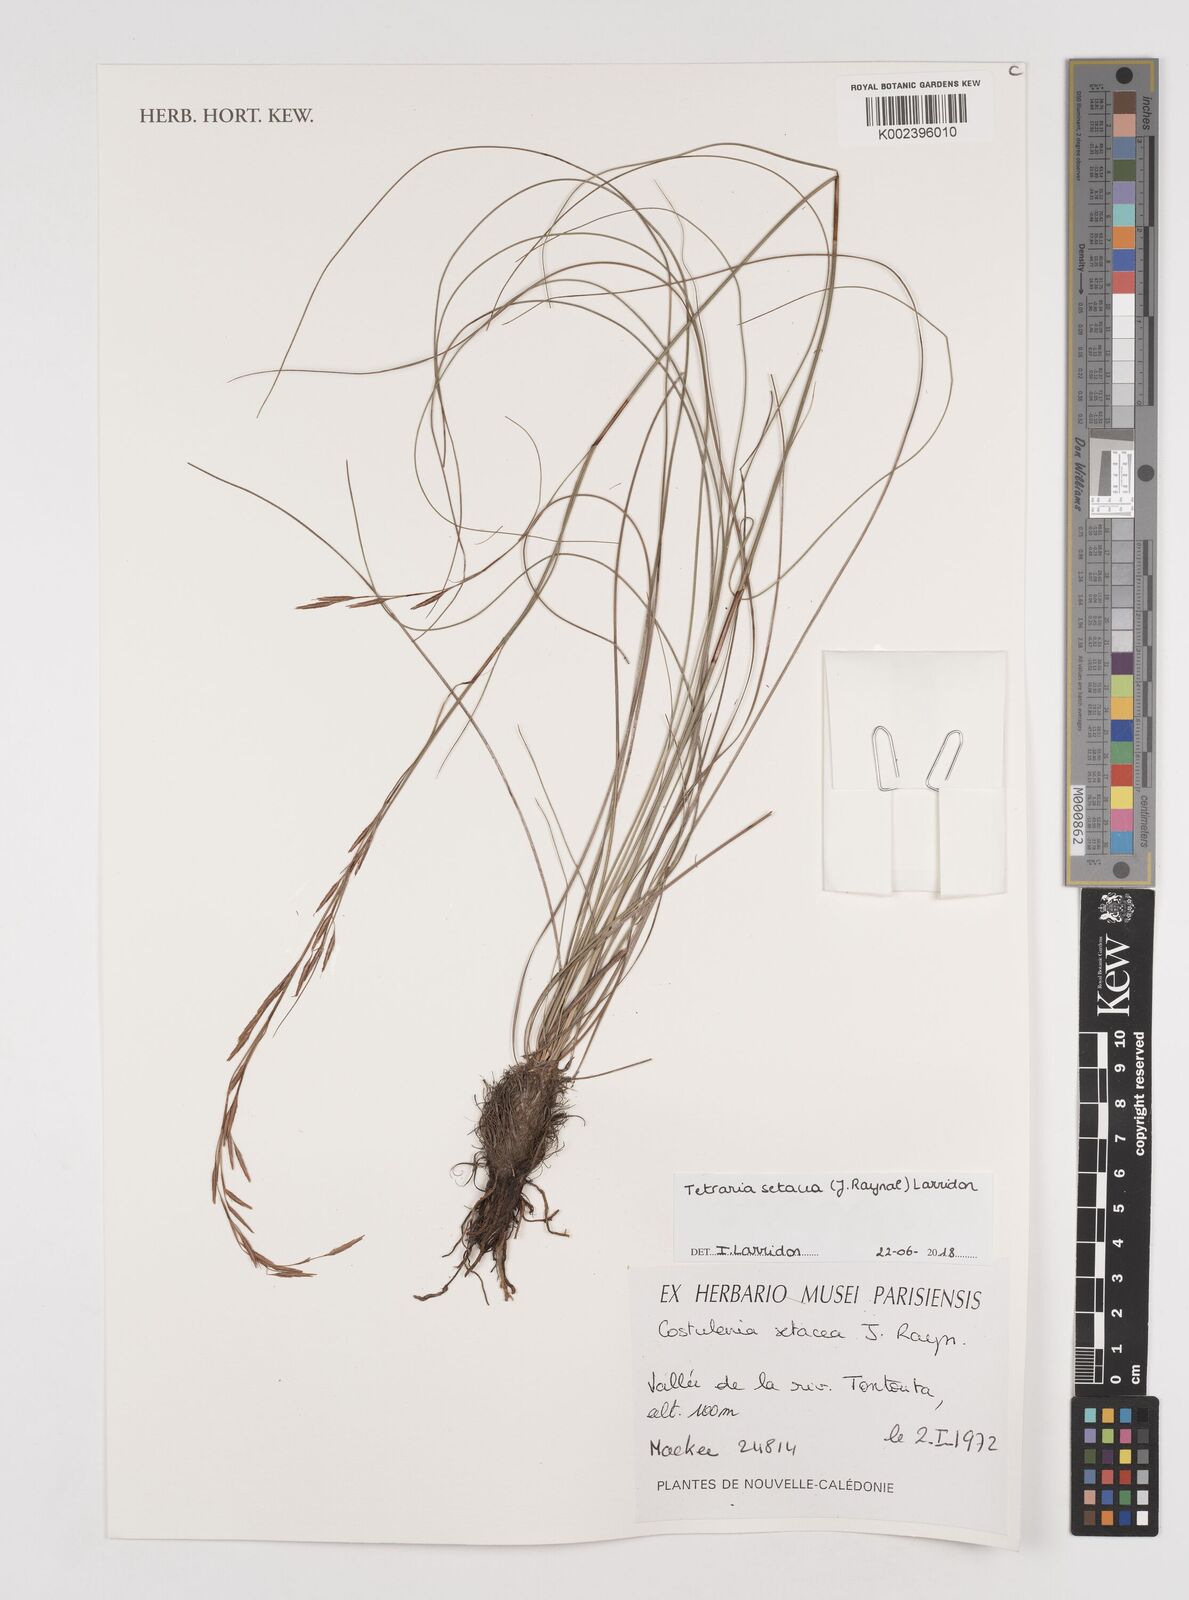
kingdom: Plantae
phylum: Tracheophyta
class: Liliopsida
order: Poales
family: Cyperaceae
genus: Tetraria
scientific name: Tetraria setacea
